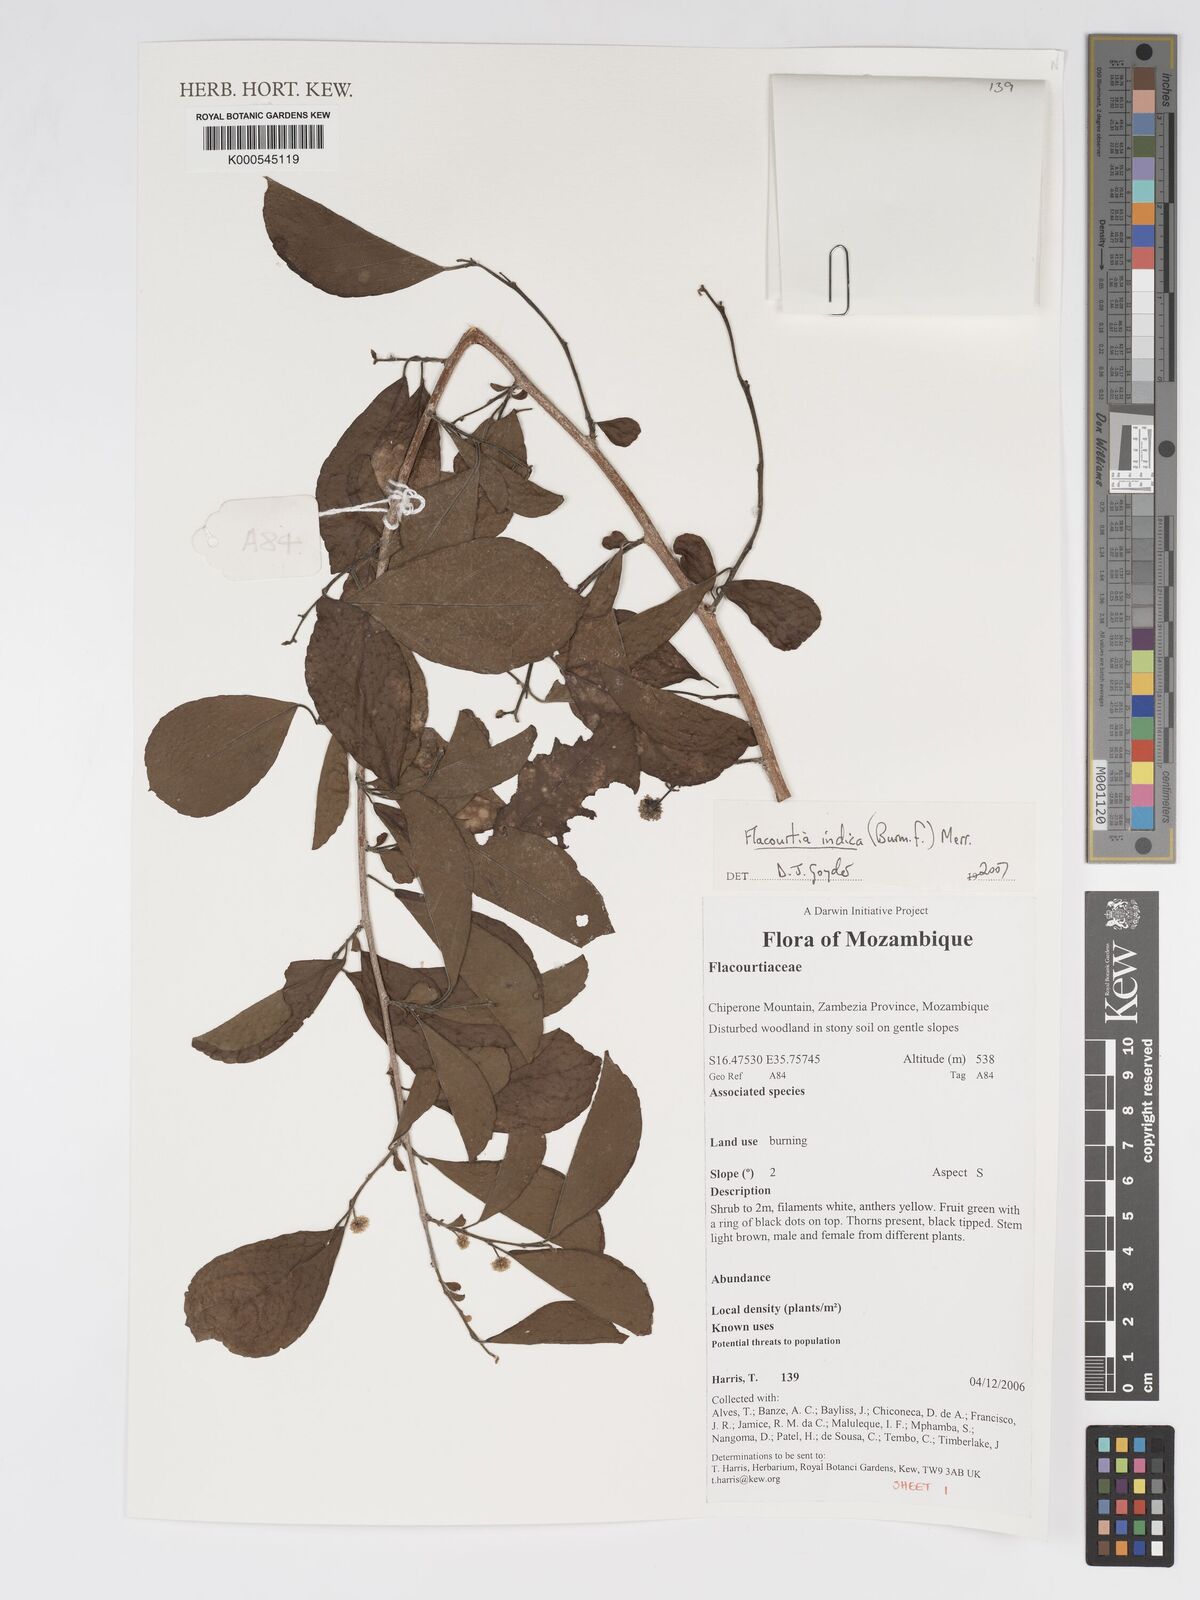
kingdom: Plantae
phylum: Tracheophyta
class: Magnoliopsida
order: Malpighiales
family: Salicaceae
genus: Flacourtia
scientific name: Flacourtia indica
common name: Governor's plum
